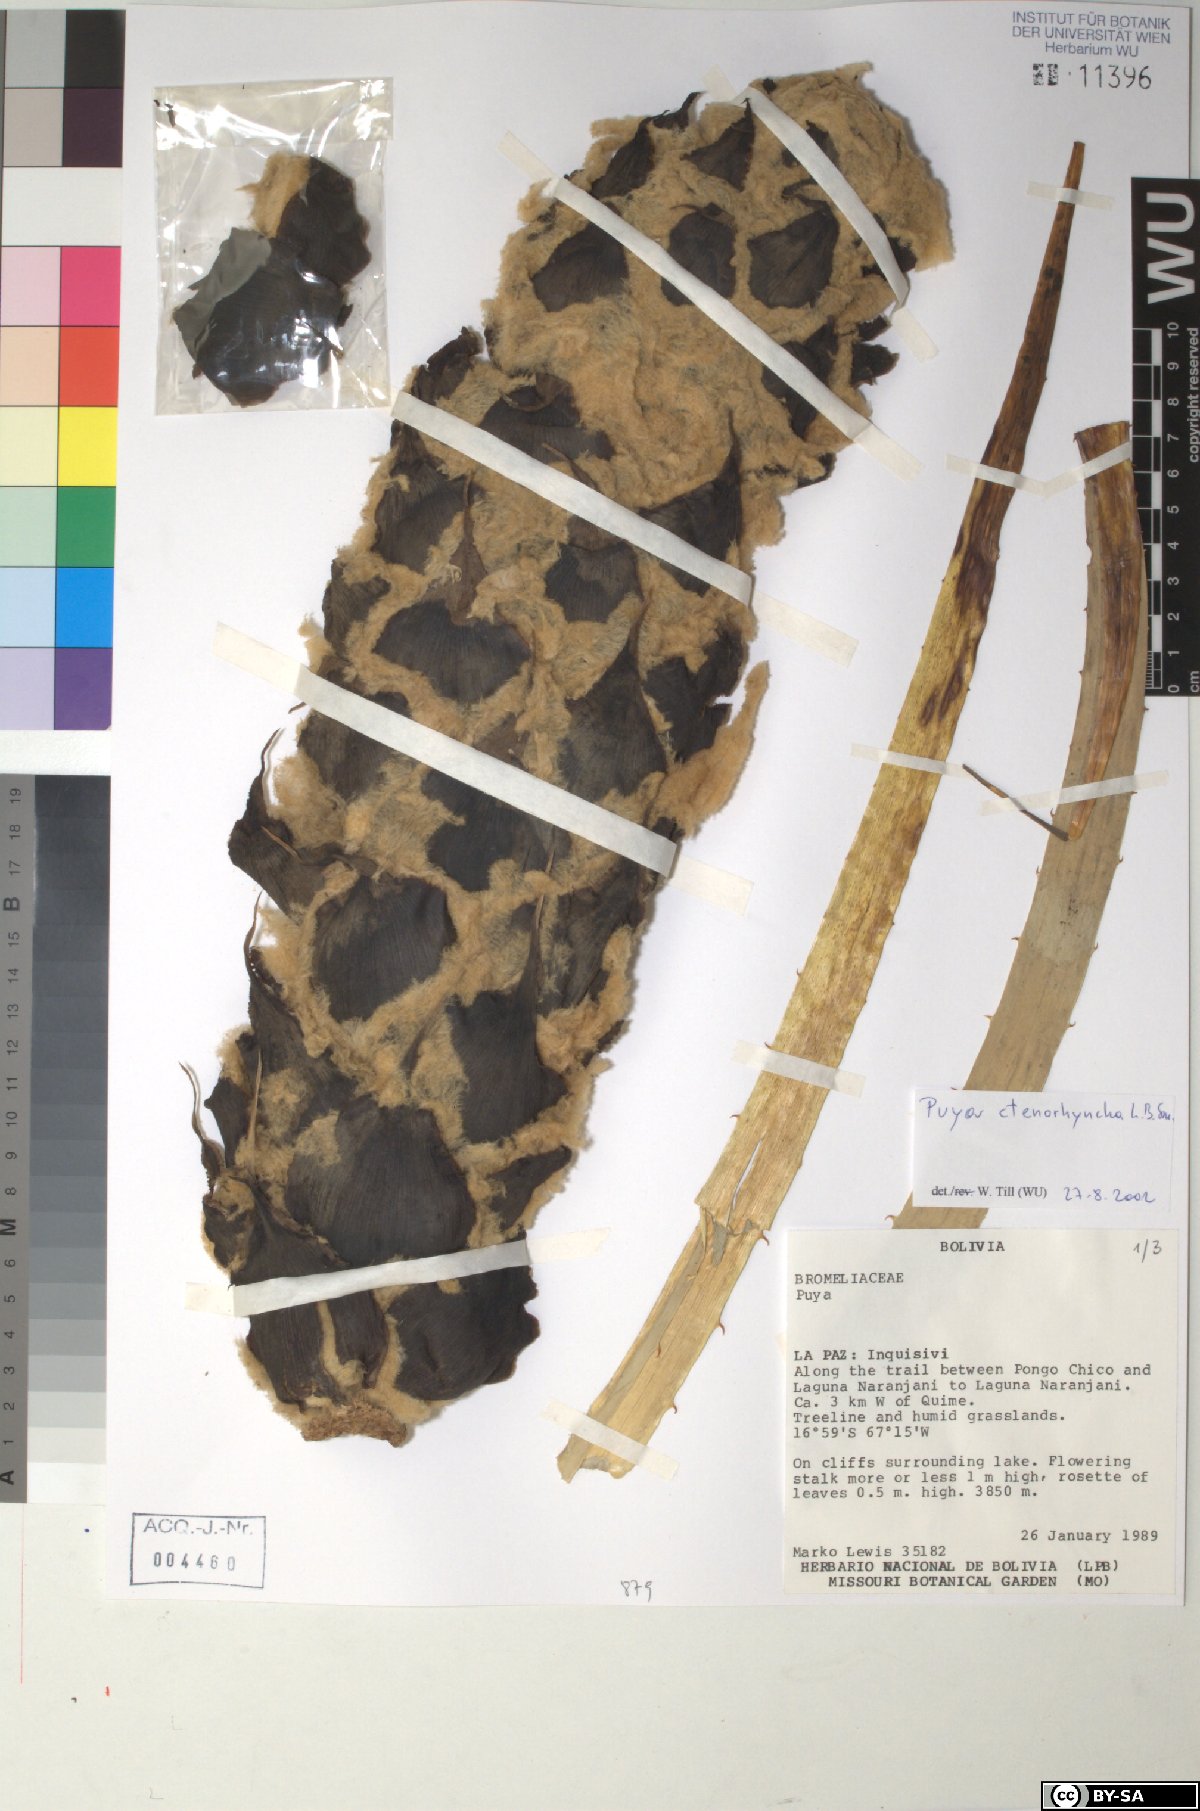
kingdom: Plantae
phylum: Tracheophyta
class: Liliopsida
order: Poales
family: Bromeliaceae
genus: Puya
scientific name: Puya ctenorhyncha
